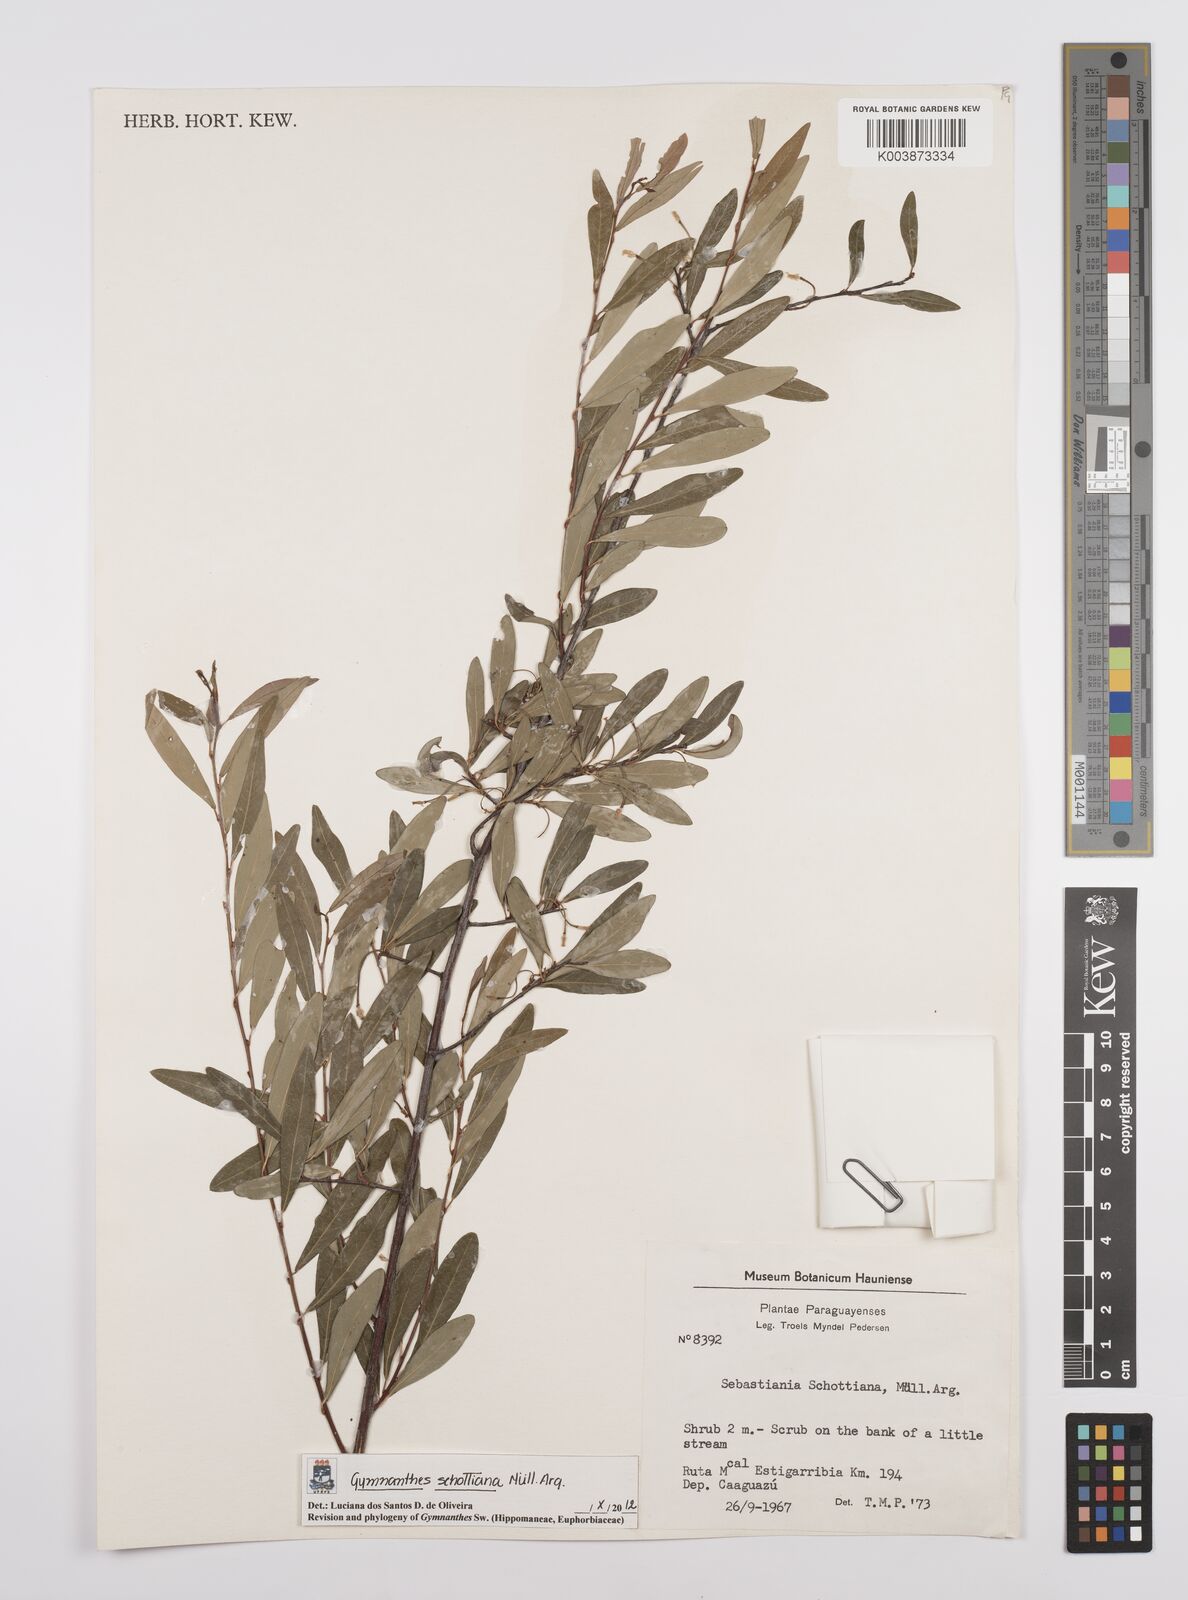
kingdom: Plantae
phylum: Tracheophyta
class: Magnoliopsida
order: Malpighiales
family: Euphorbiaceae
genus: Sebastiania
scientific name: Sebastiania schottiana
